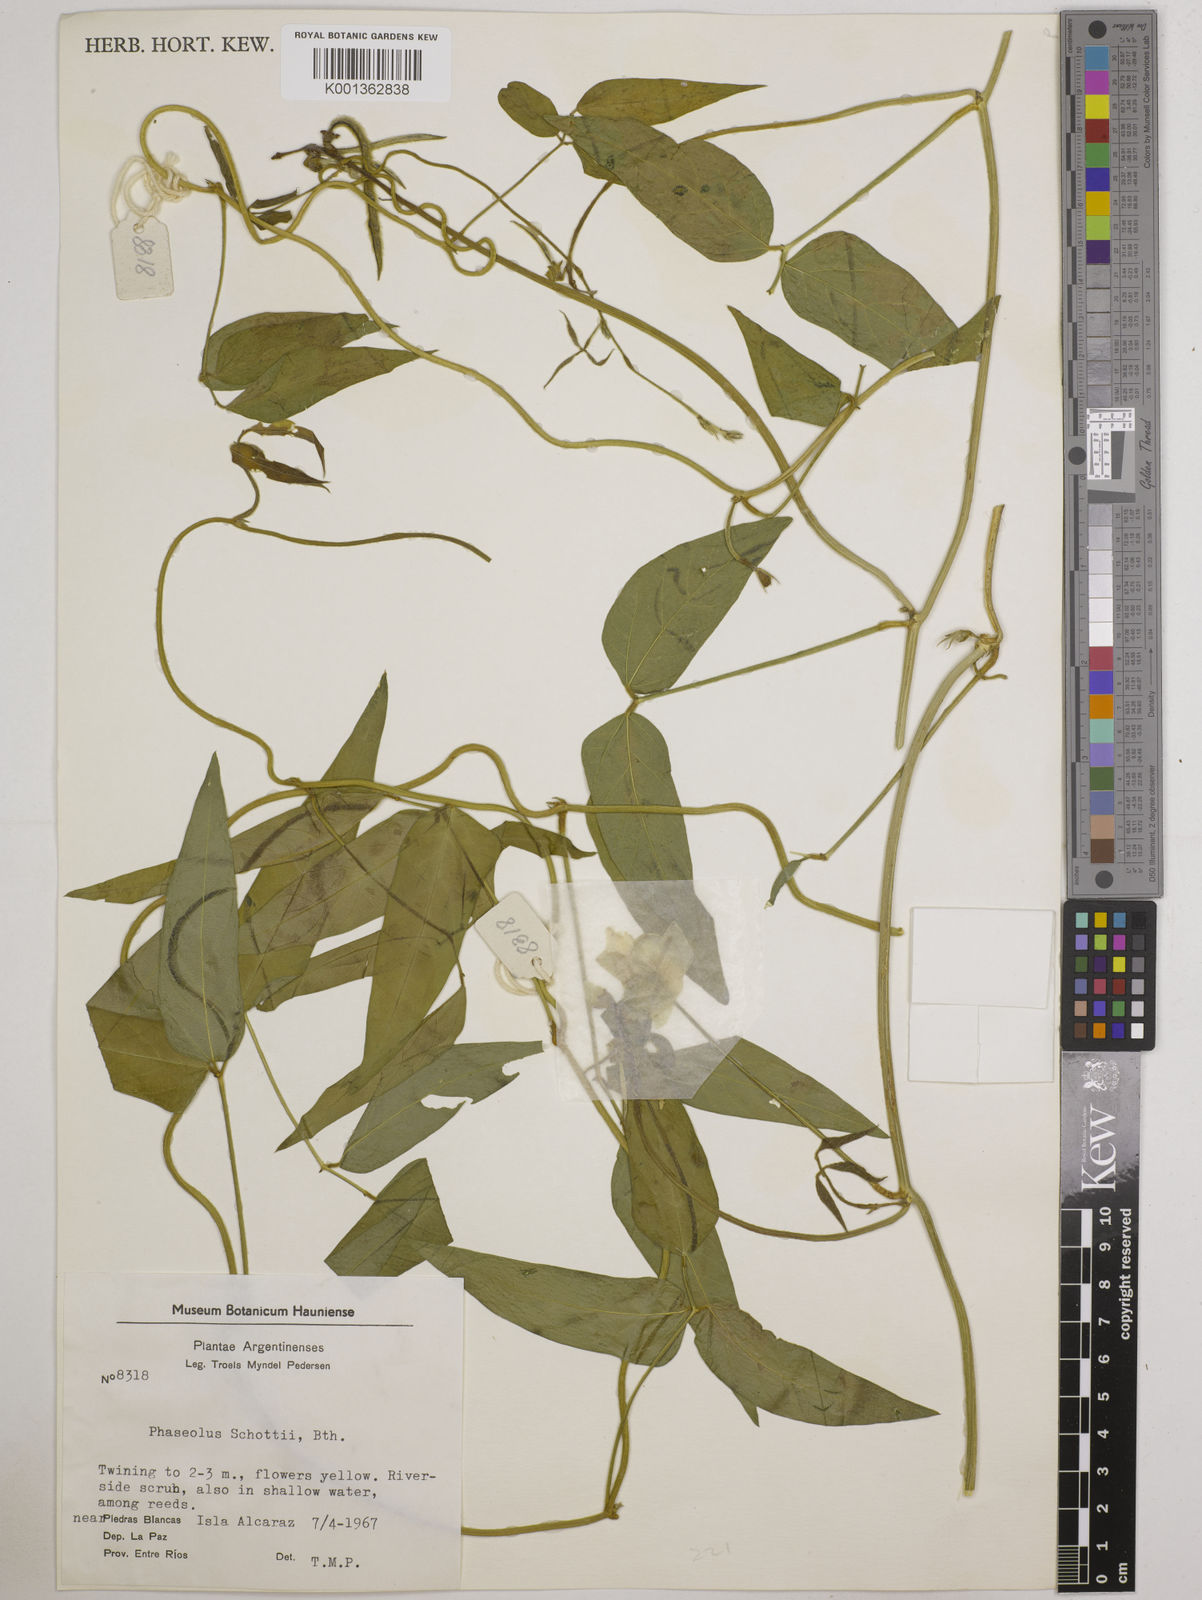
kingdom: Plantae
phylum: Tracheophyta
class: Magnoliopsida
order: Fabales
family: Fabaceae
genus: Vigna
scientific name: Vigna longifolia
